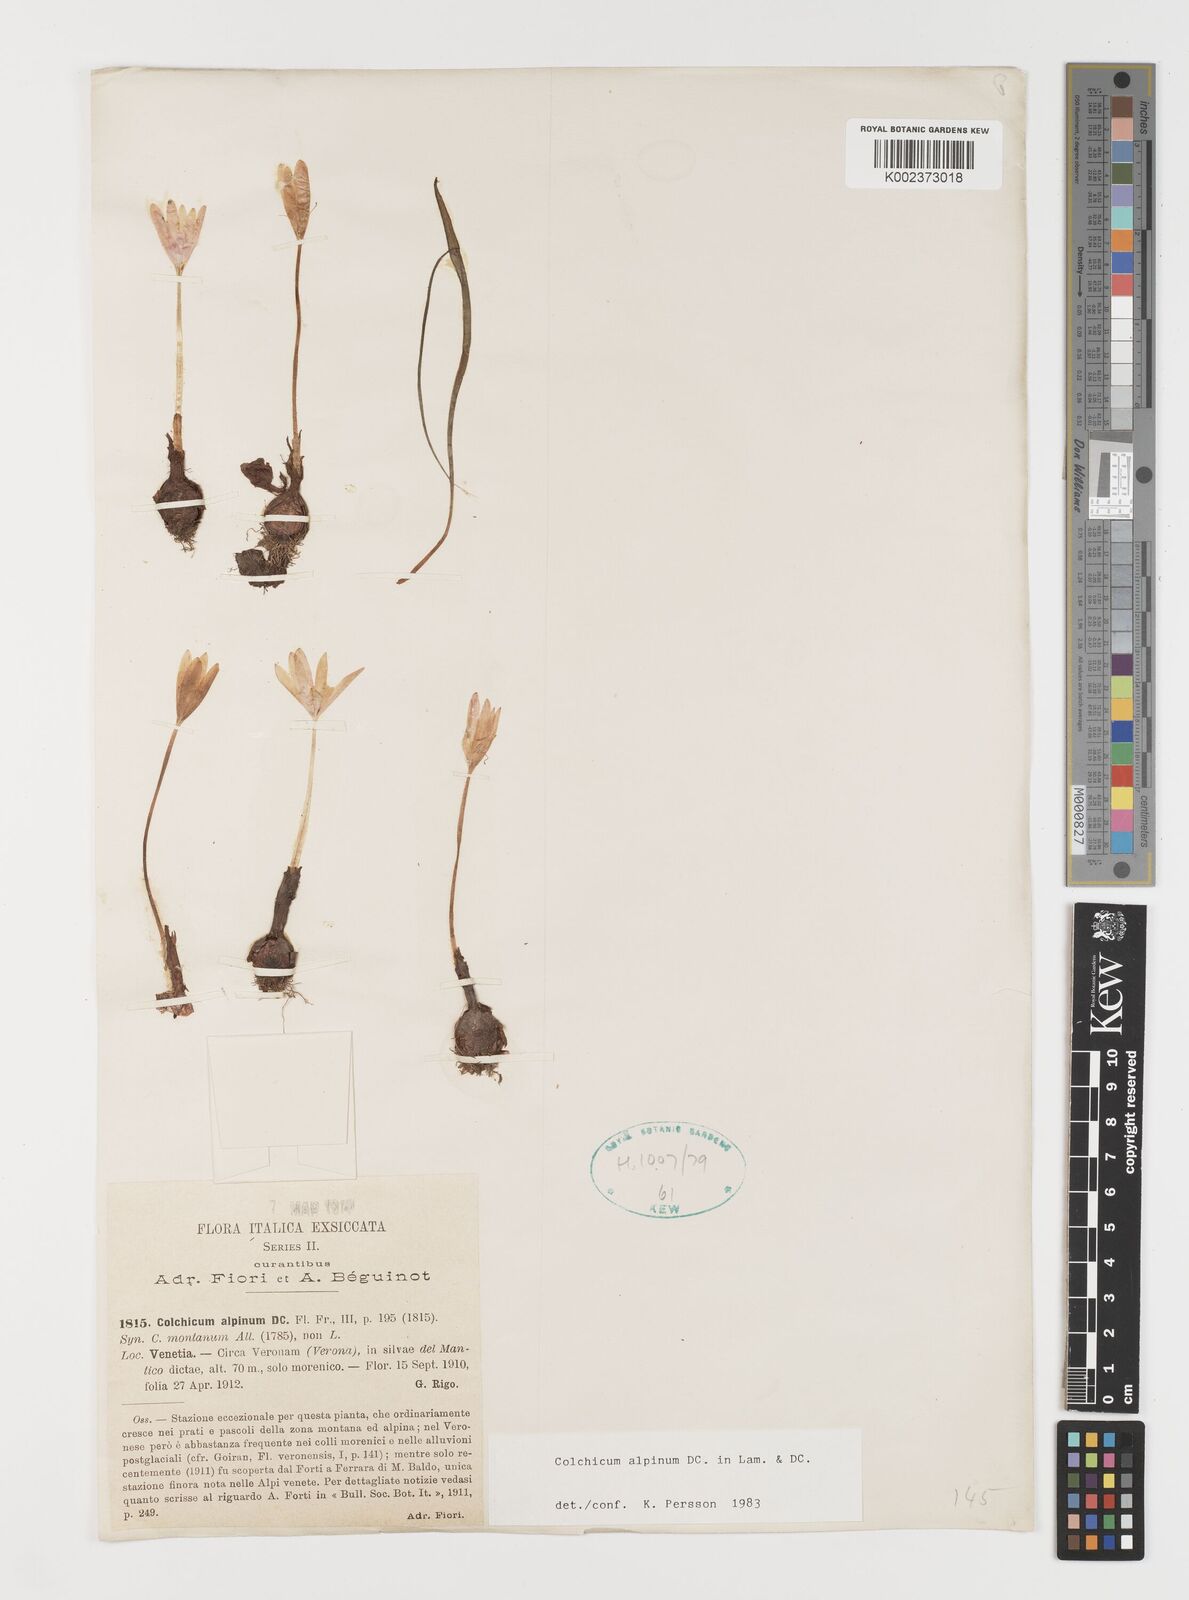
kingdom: Plantae
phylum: Tracheophyta
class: Liliopsida
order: Liliales
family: Colchicaceae
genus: Colchicum
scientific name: Colchicum alpinum
